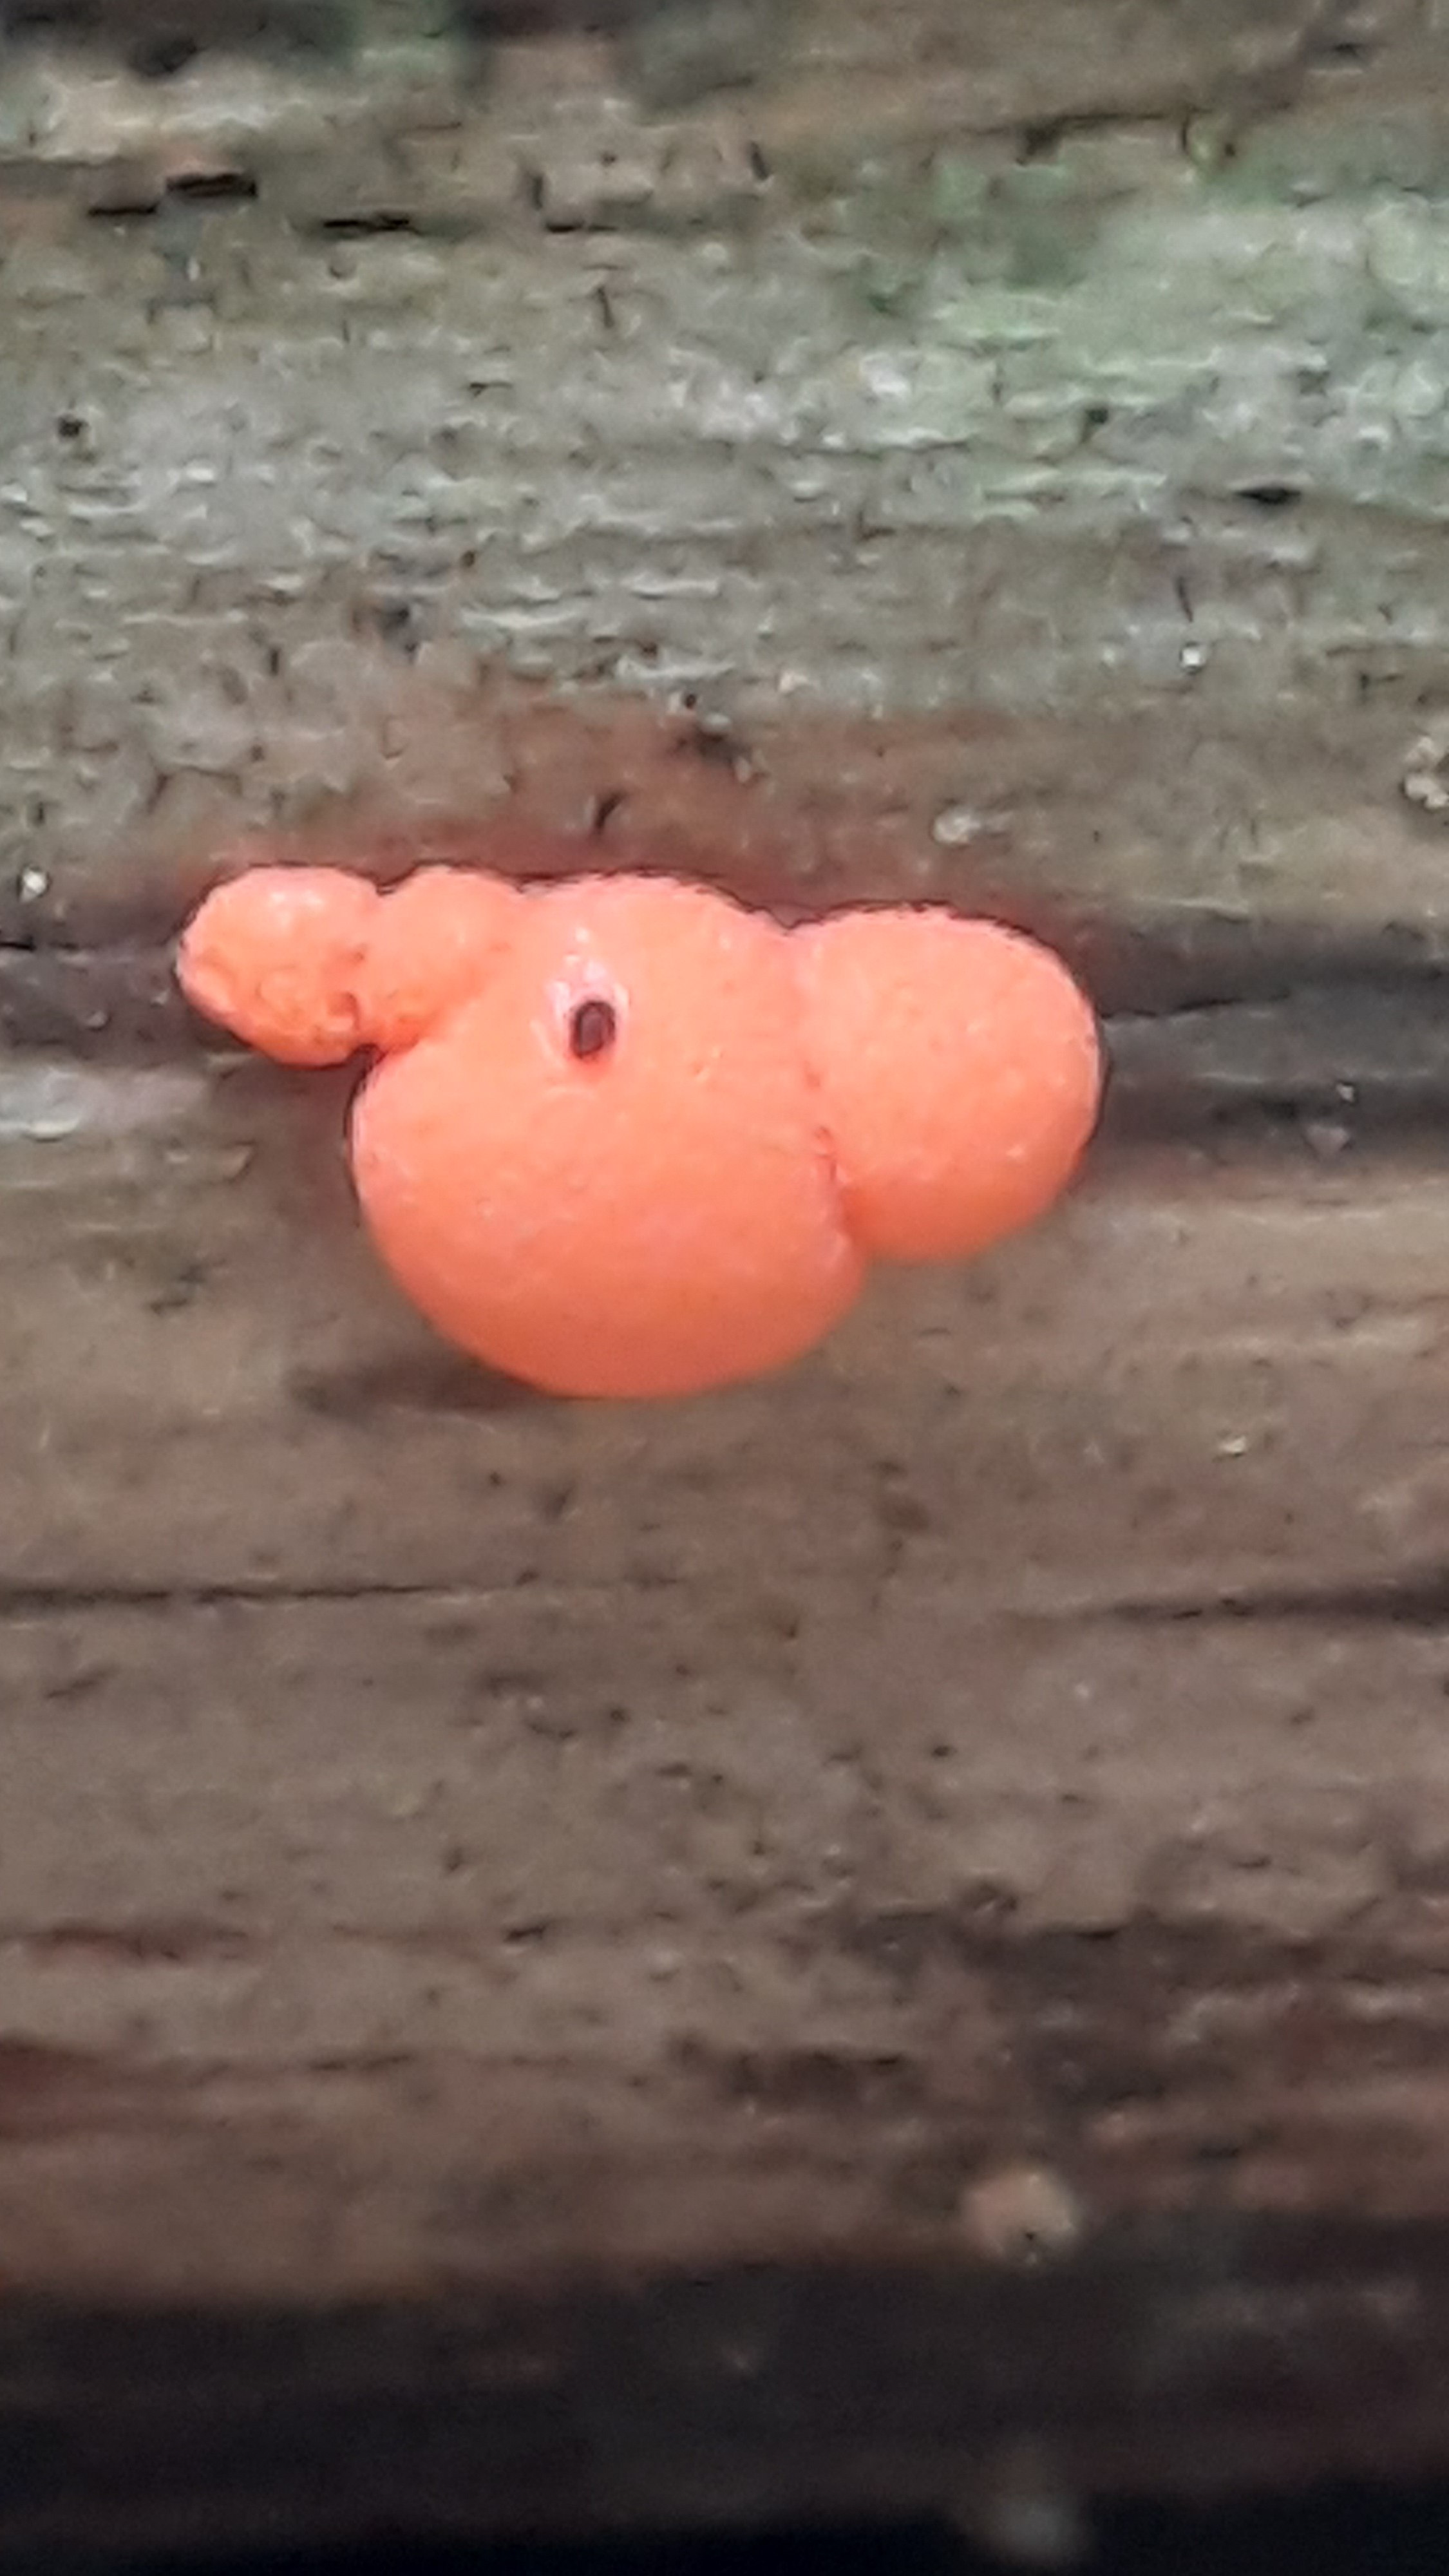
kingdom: Protozoa
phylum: Mycetozoa
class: Myxomycetes
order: Cribrariales
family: Tubiferaceae
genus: Lycogala
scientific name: Lycogala epidendrum
